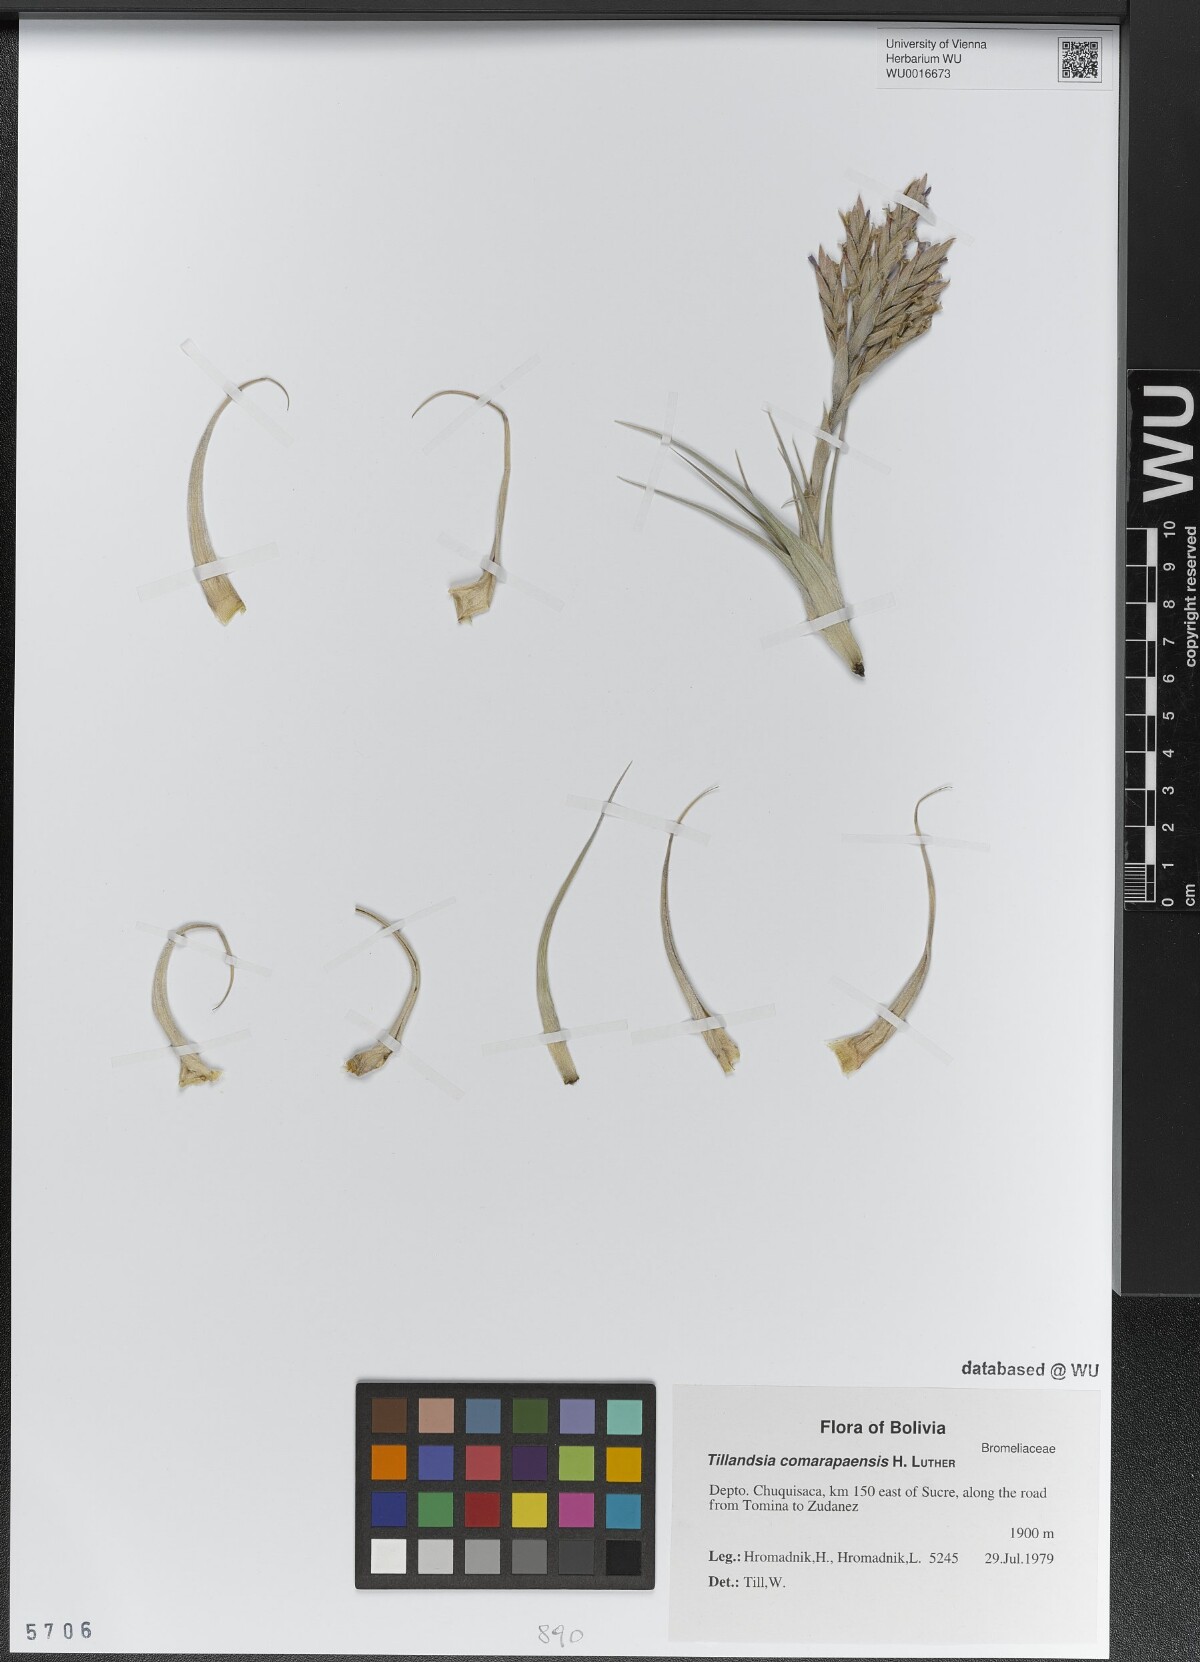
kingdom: Plantae
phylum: Tracheophyta
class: Liliopsida
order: Poales
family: Bromeliaceae
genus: Tillandsia
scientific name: Tillandsia comarapaensis
